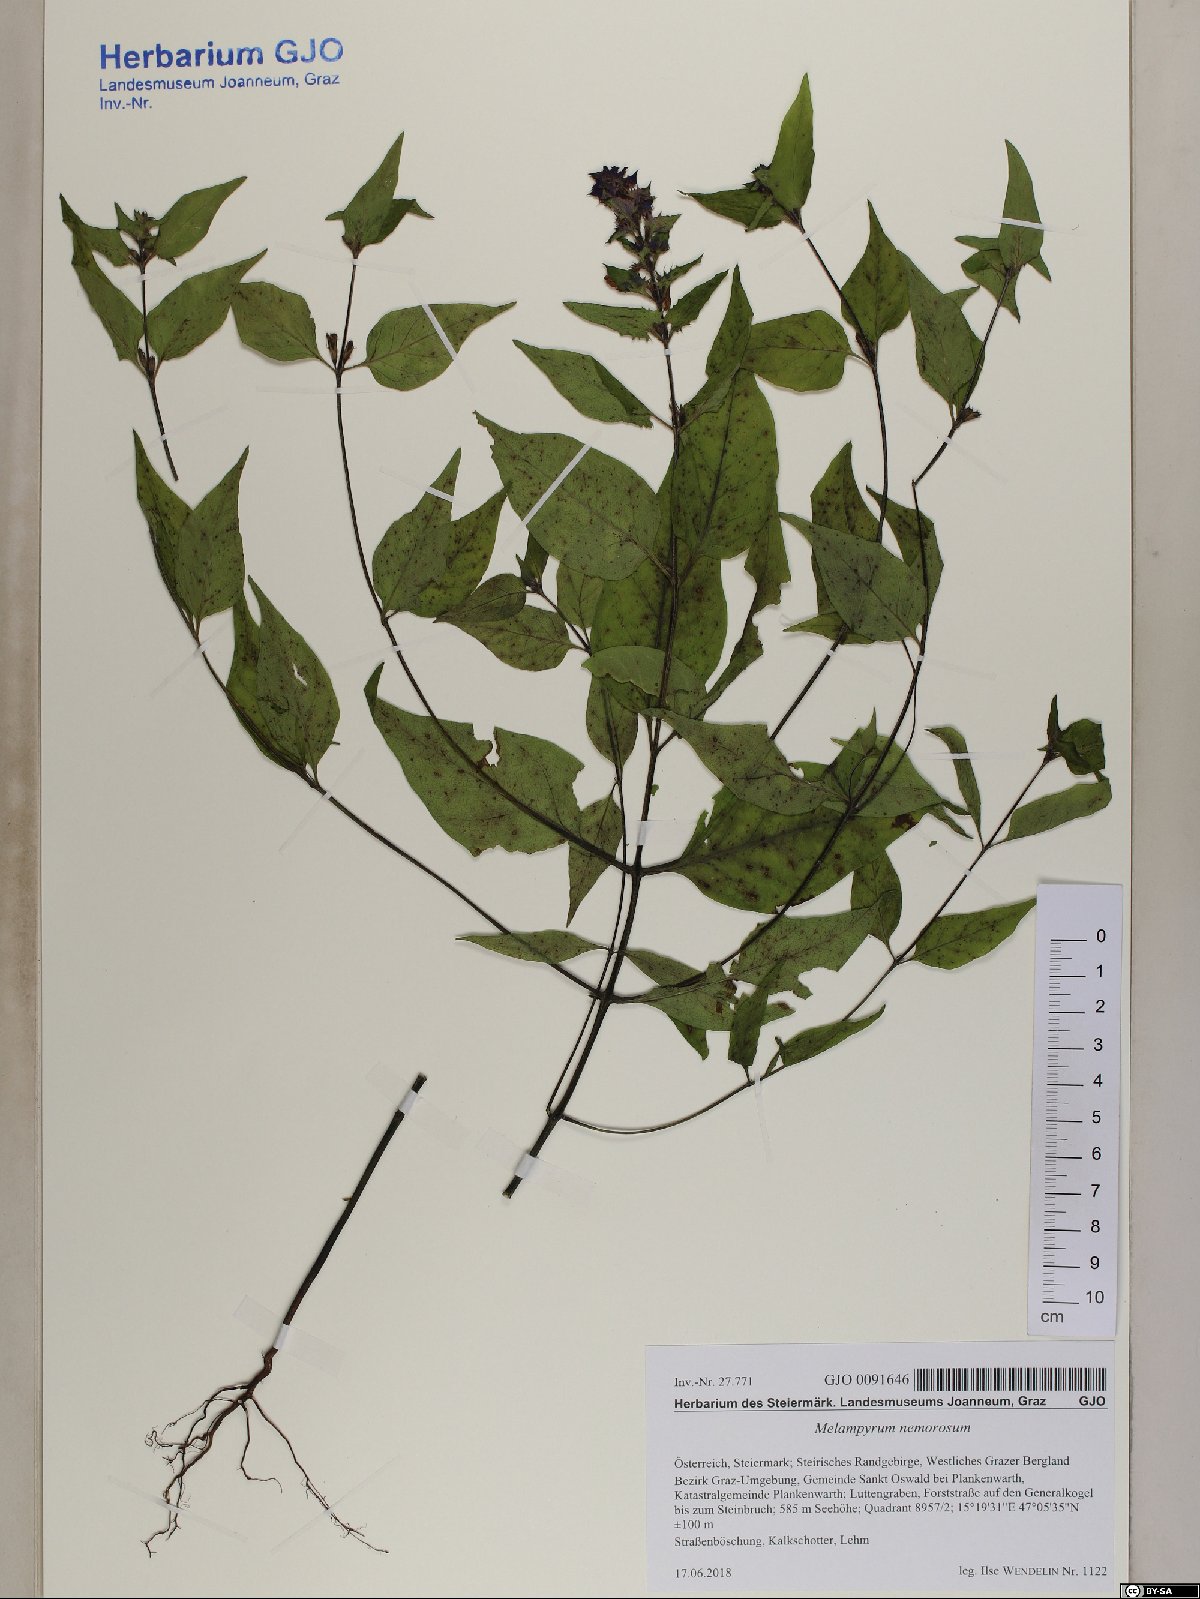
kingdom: Plantae
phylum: Tracheophyta
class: Magnoliopsida
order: Lamiales
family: Orobanchaceae
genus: Melampyrum
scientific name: Melampyrum nemorosum
